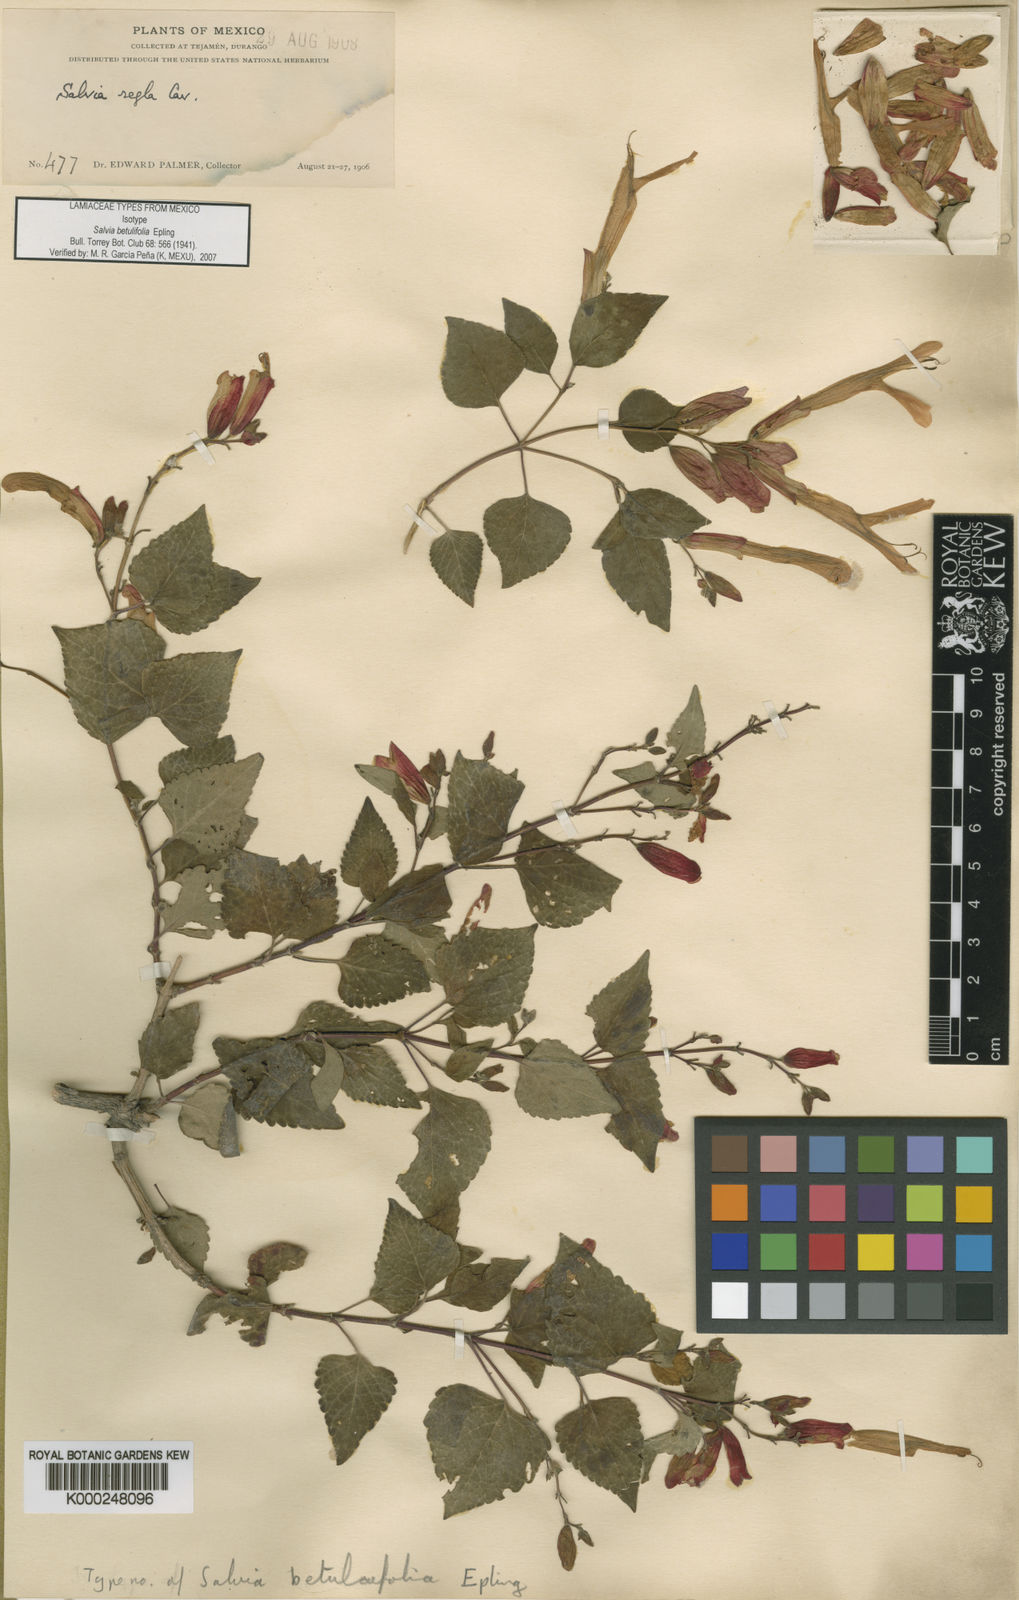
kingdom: Plantae
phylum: Tracheophyta
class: Magnoliopsida
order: Lamiales
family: Lamiaceae
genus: Salvia
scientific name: Salvia betulifolia
